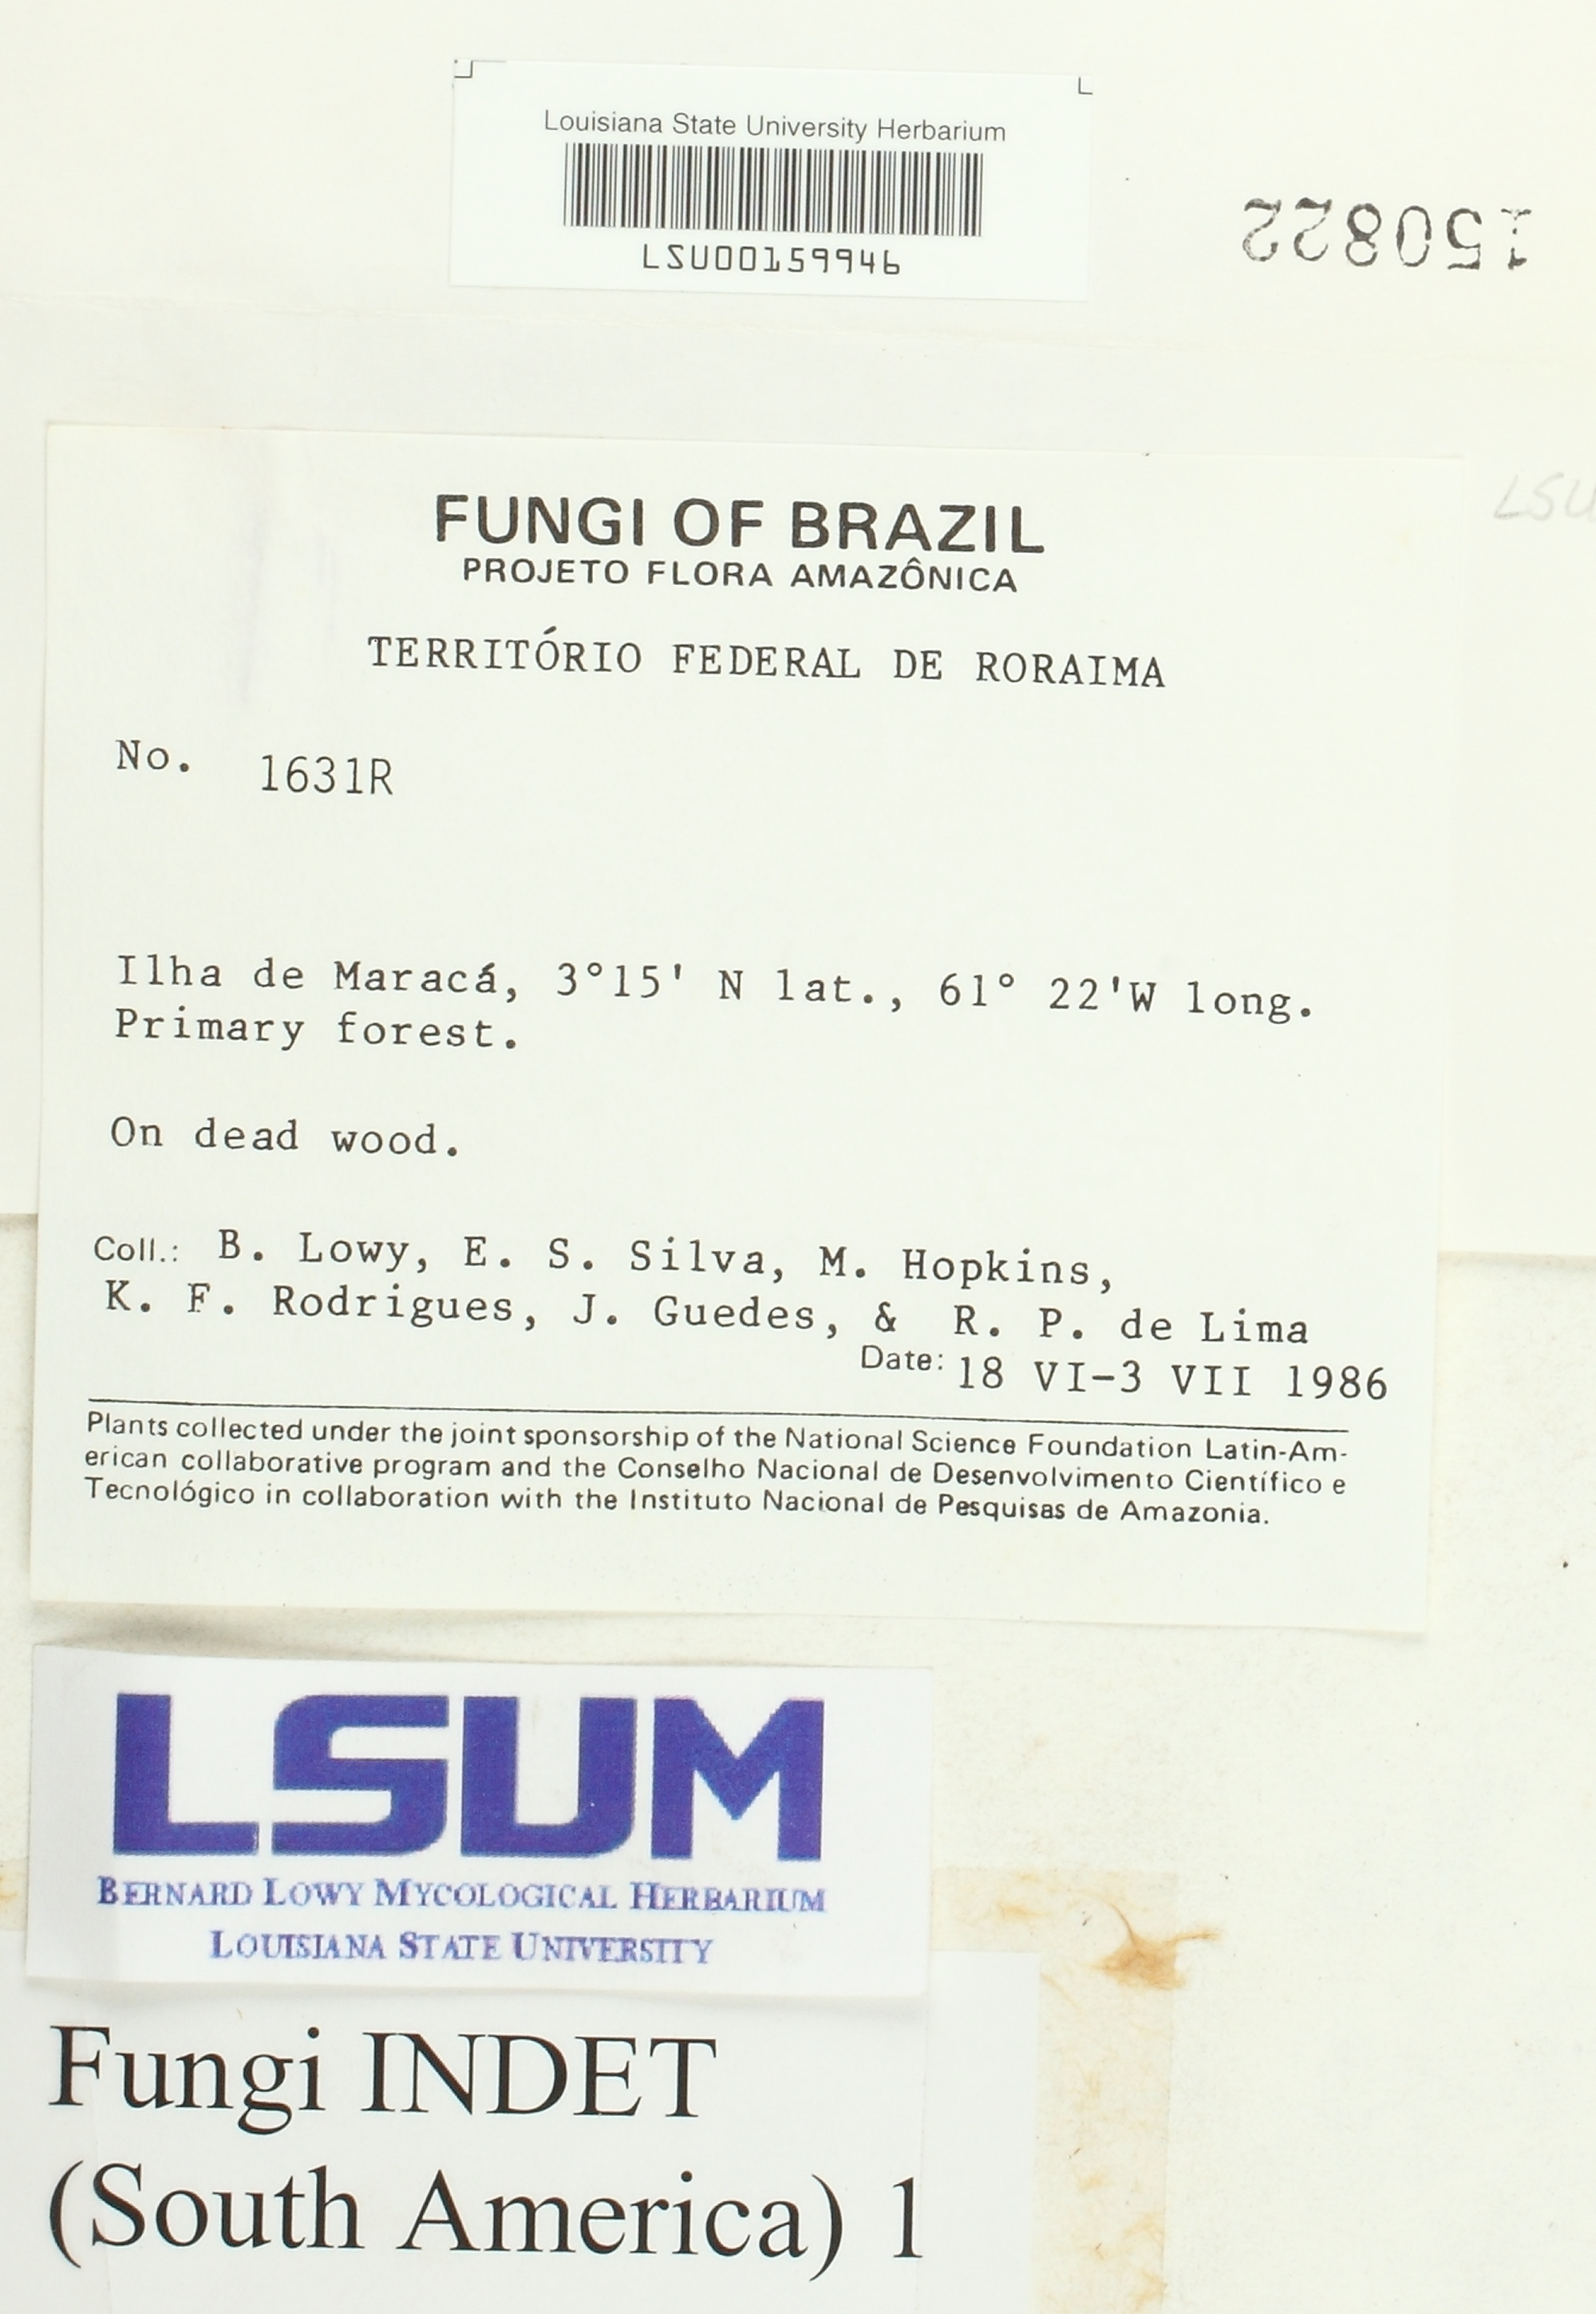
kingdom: Fungi
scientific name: Fungi
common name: Fungi
